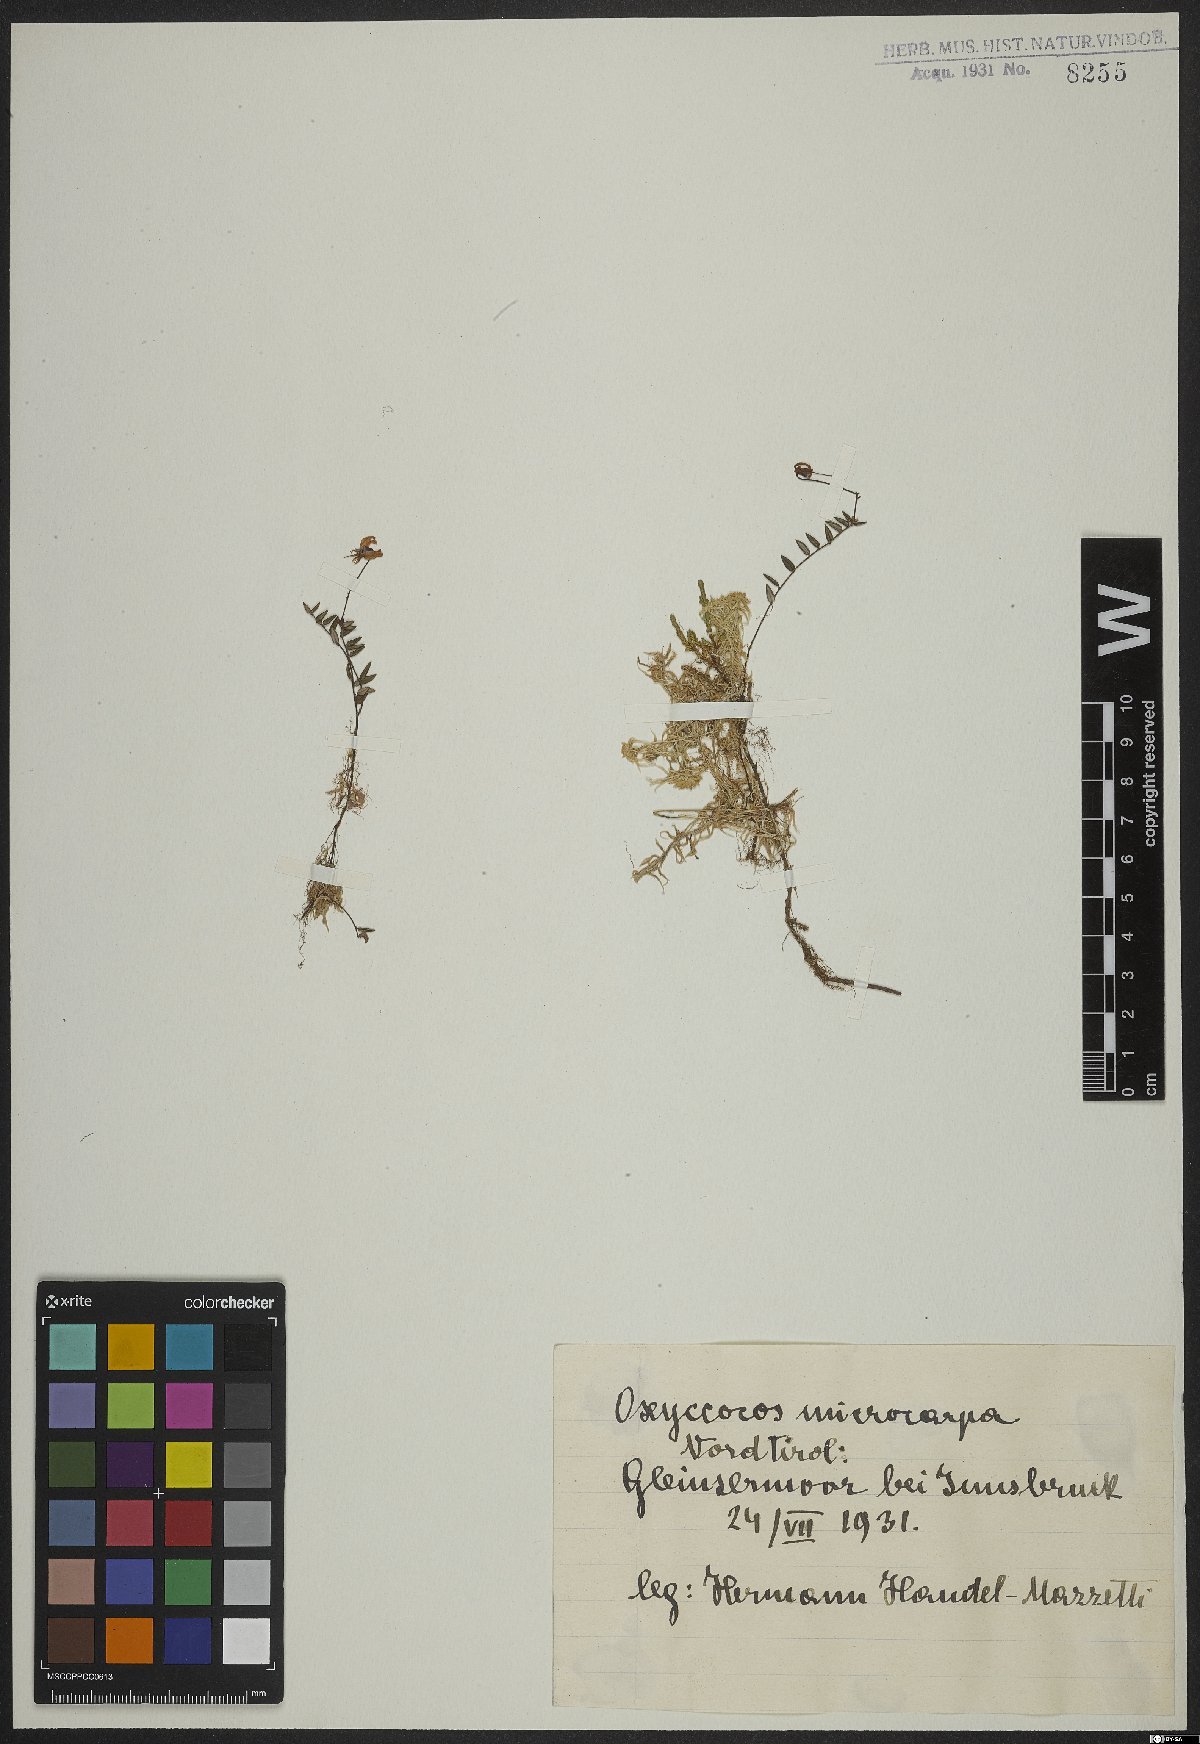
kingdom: Plantae
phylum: Tracheophyta
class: Magnoliopsida
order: Ericales
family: Ericaceae
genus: Vaccinium
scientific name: Vaccinium microcarpum
